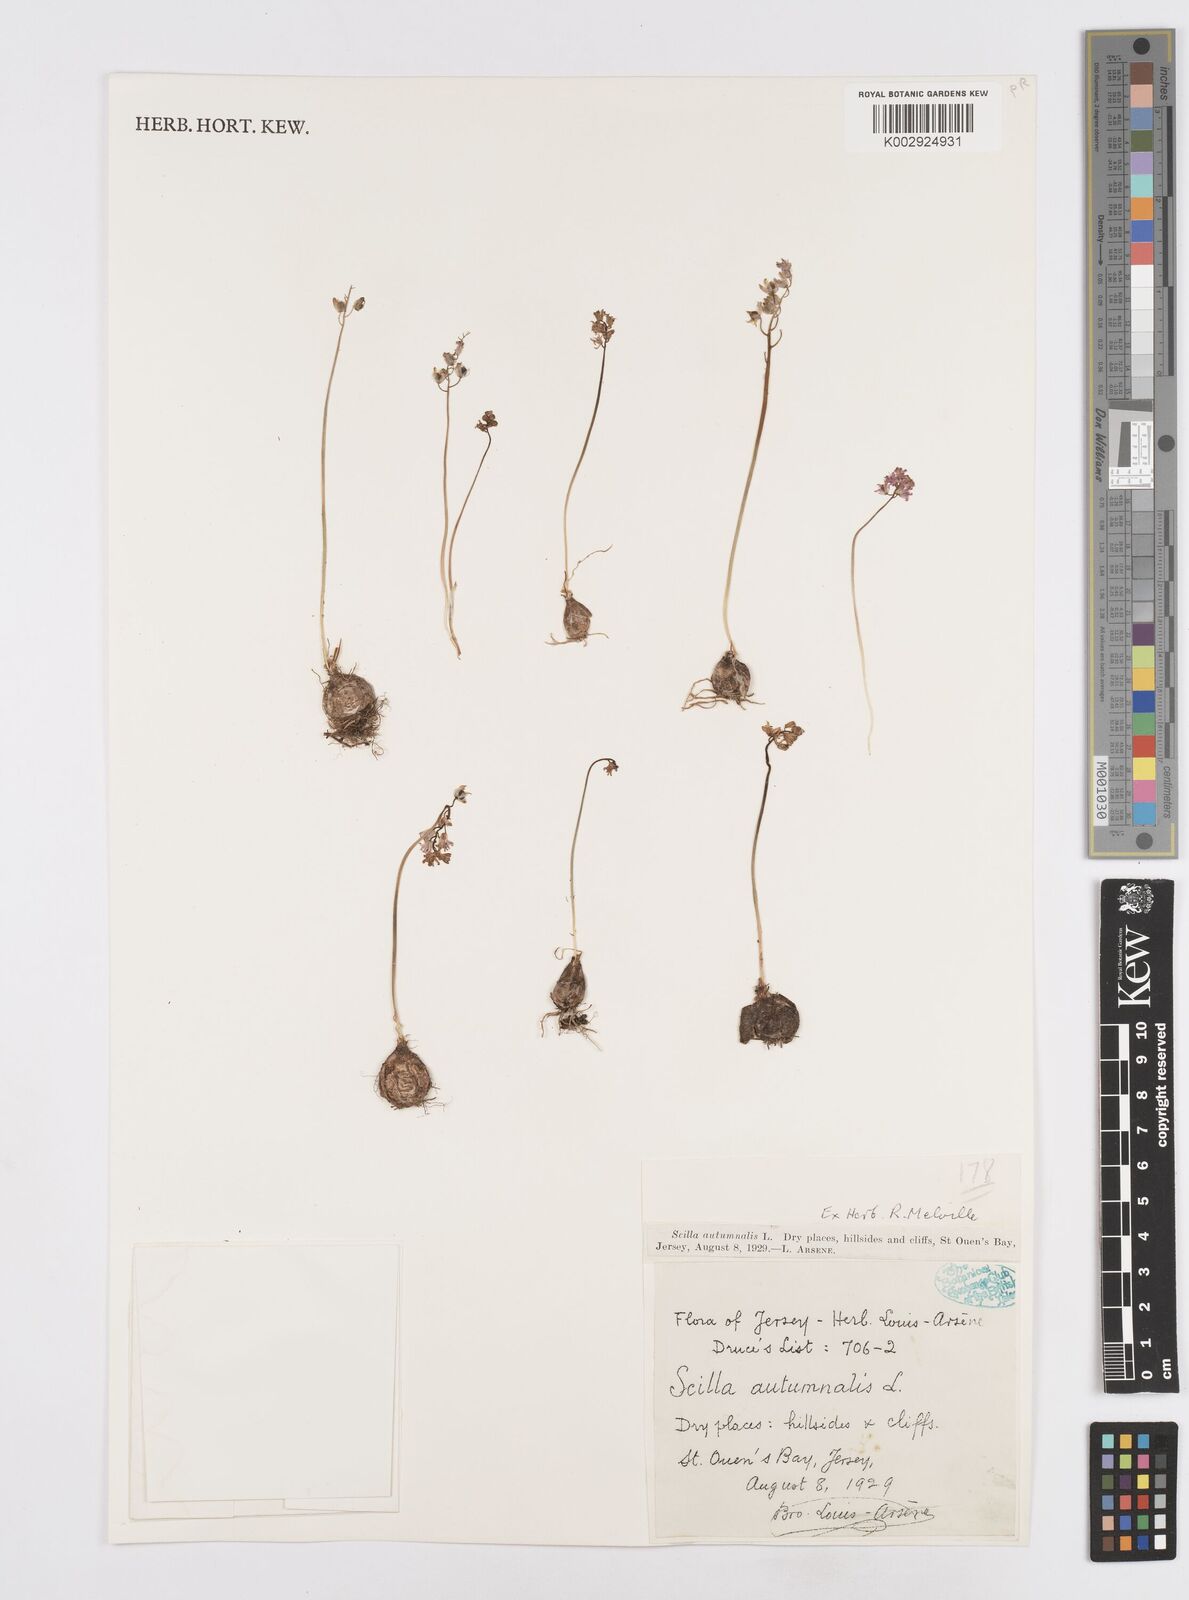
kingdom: Plantae
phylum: Tracheophyta
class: Liliopsida
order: Asparagales
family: Asparagaceae
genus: Prospero
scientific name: Prospero autumnale
